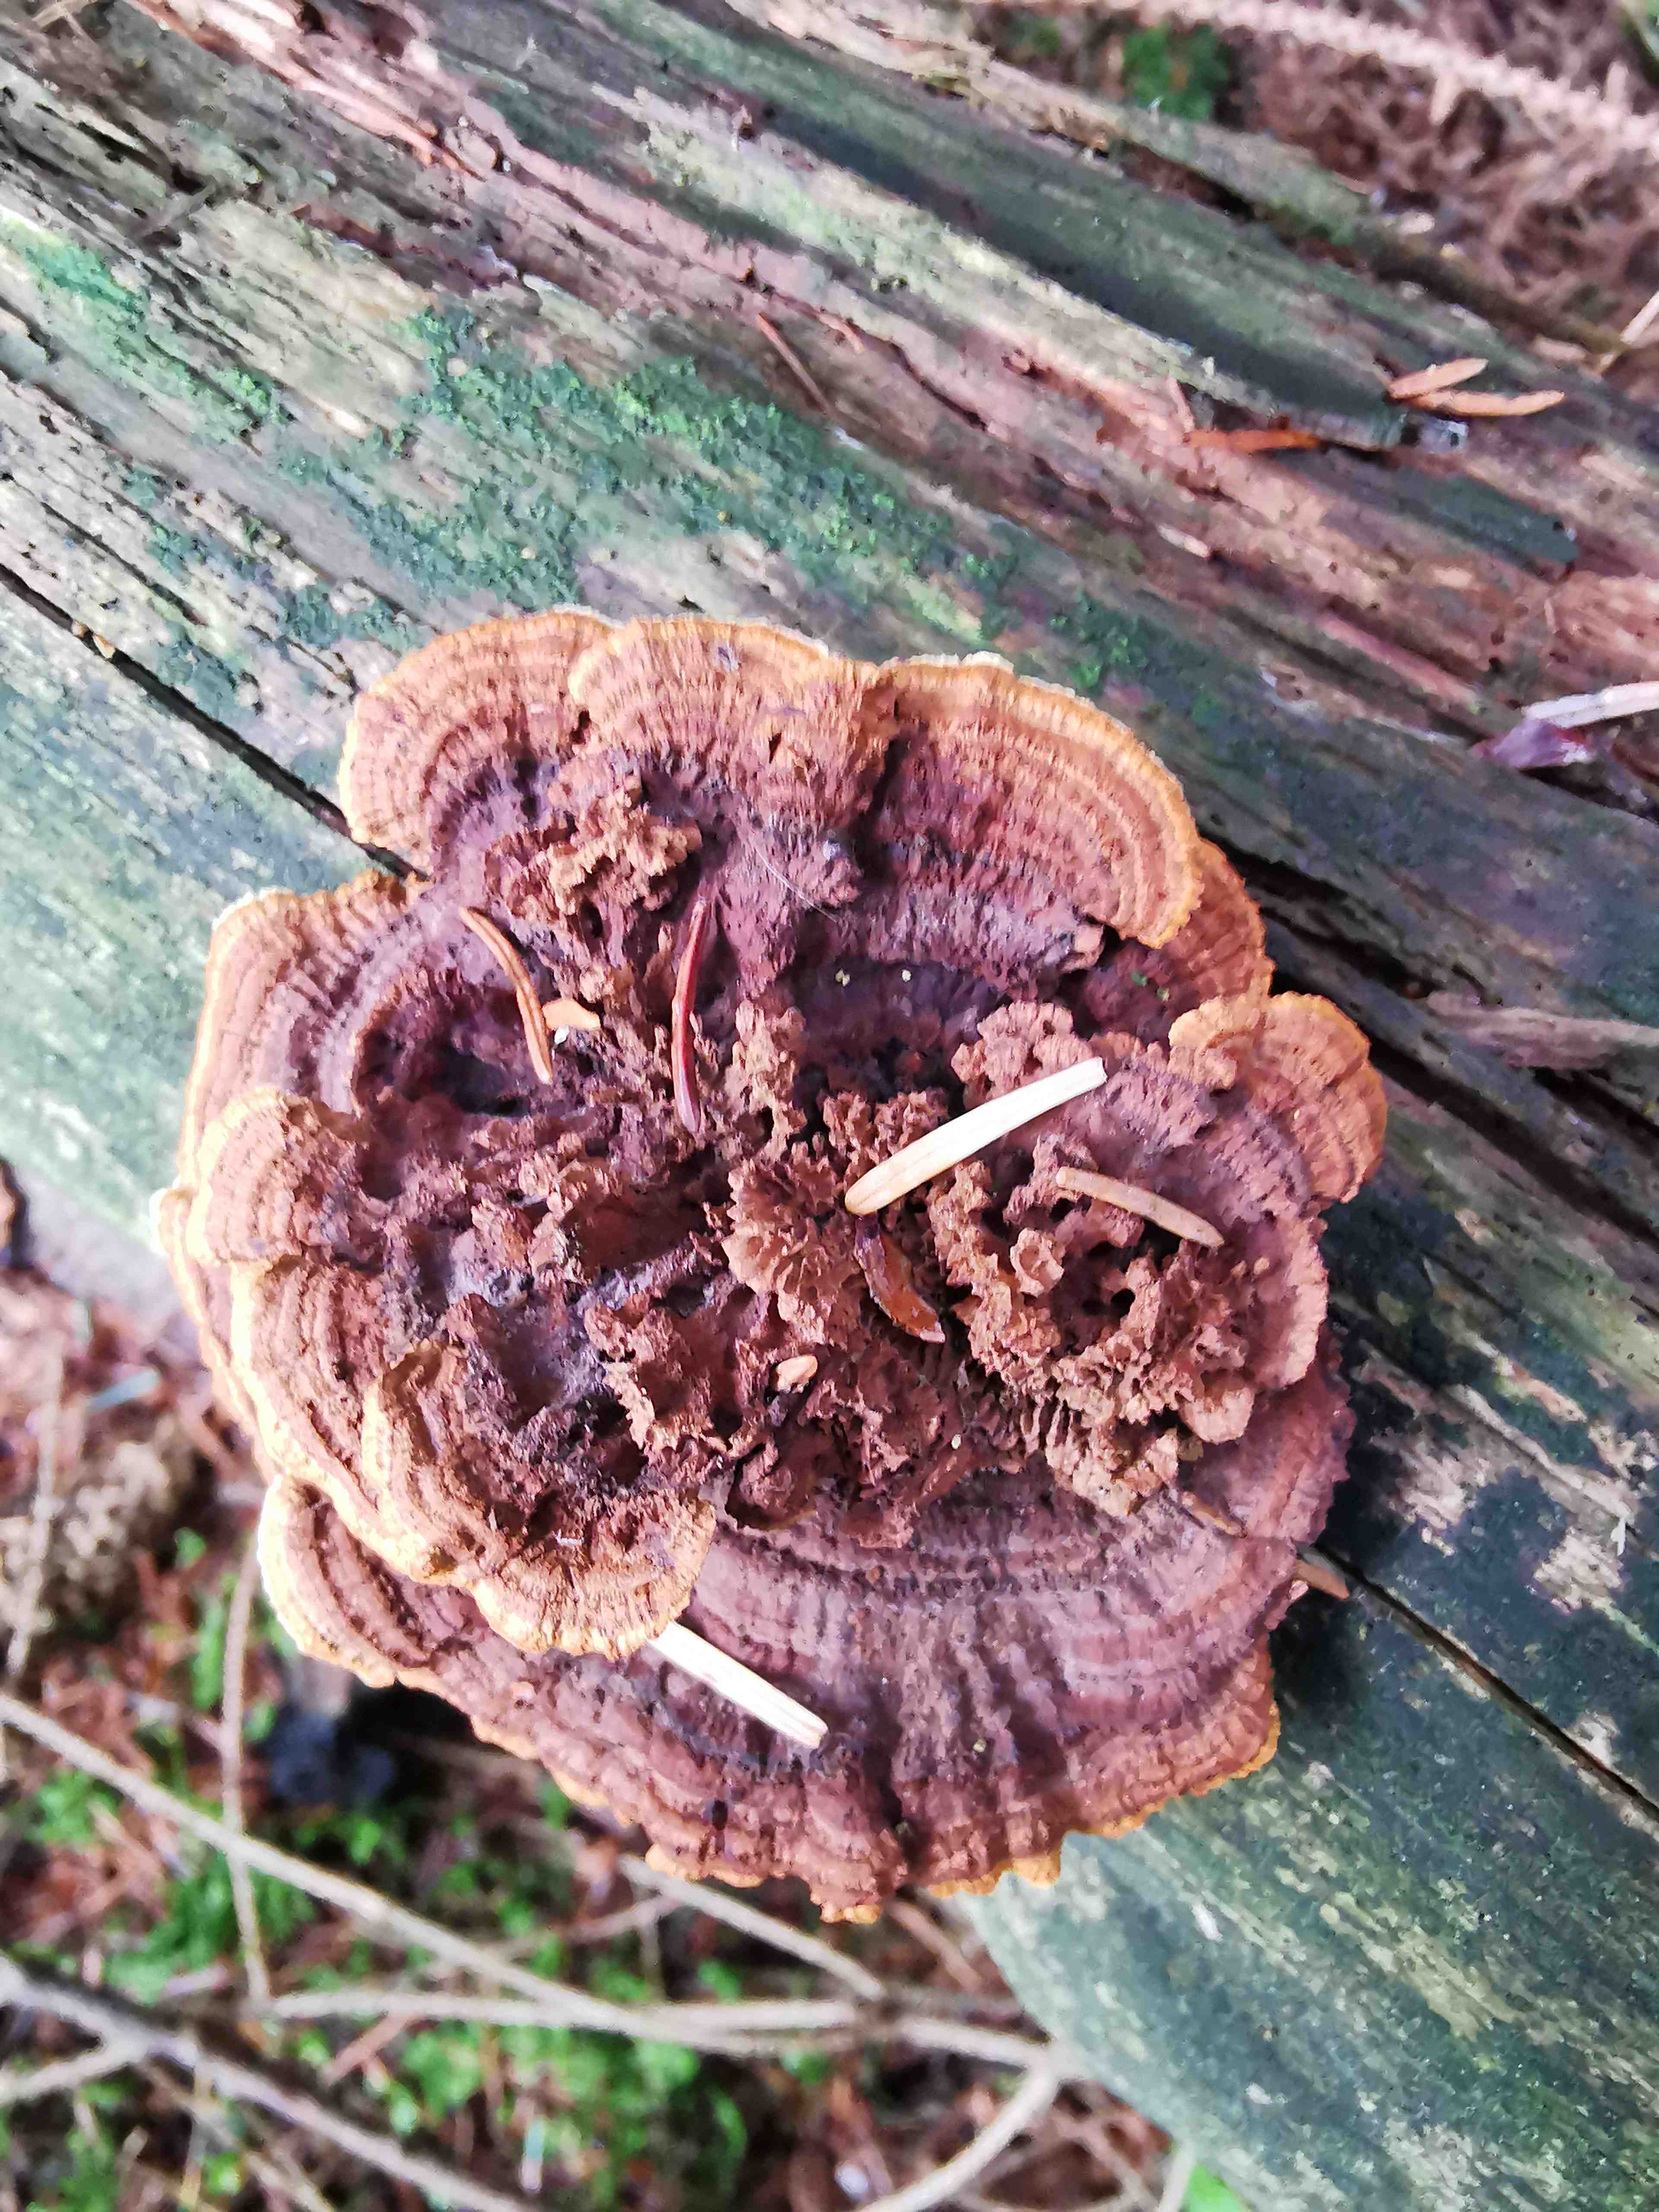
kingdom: Fungi
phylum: Basidiomycota
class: Agaricomycetes
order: Gloeophyllales
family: Gloeophyllaceae
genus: Gloeophyllum
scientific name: Gloeophyllum sepiarium
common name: fyrre-korkhat
